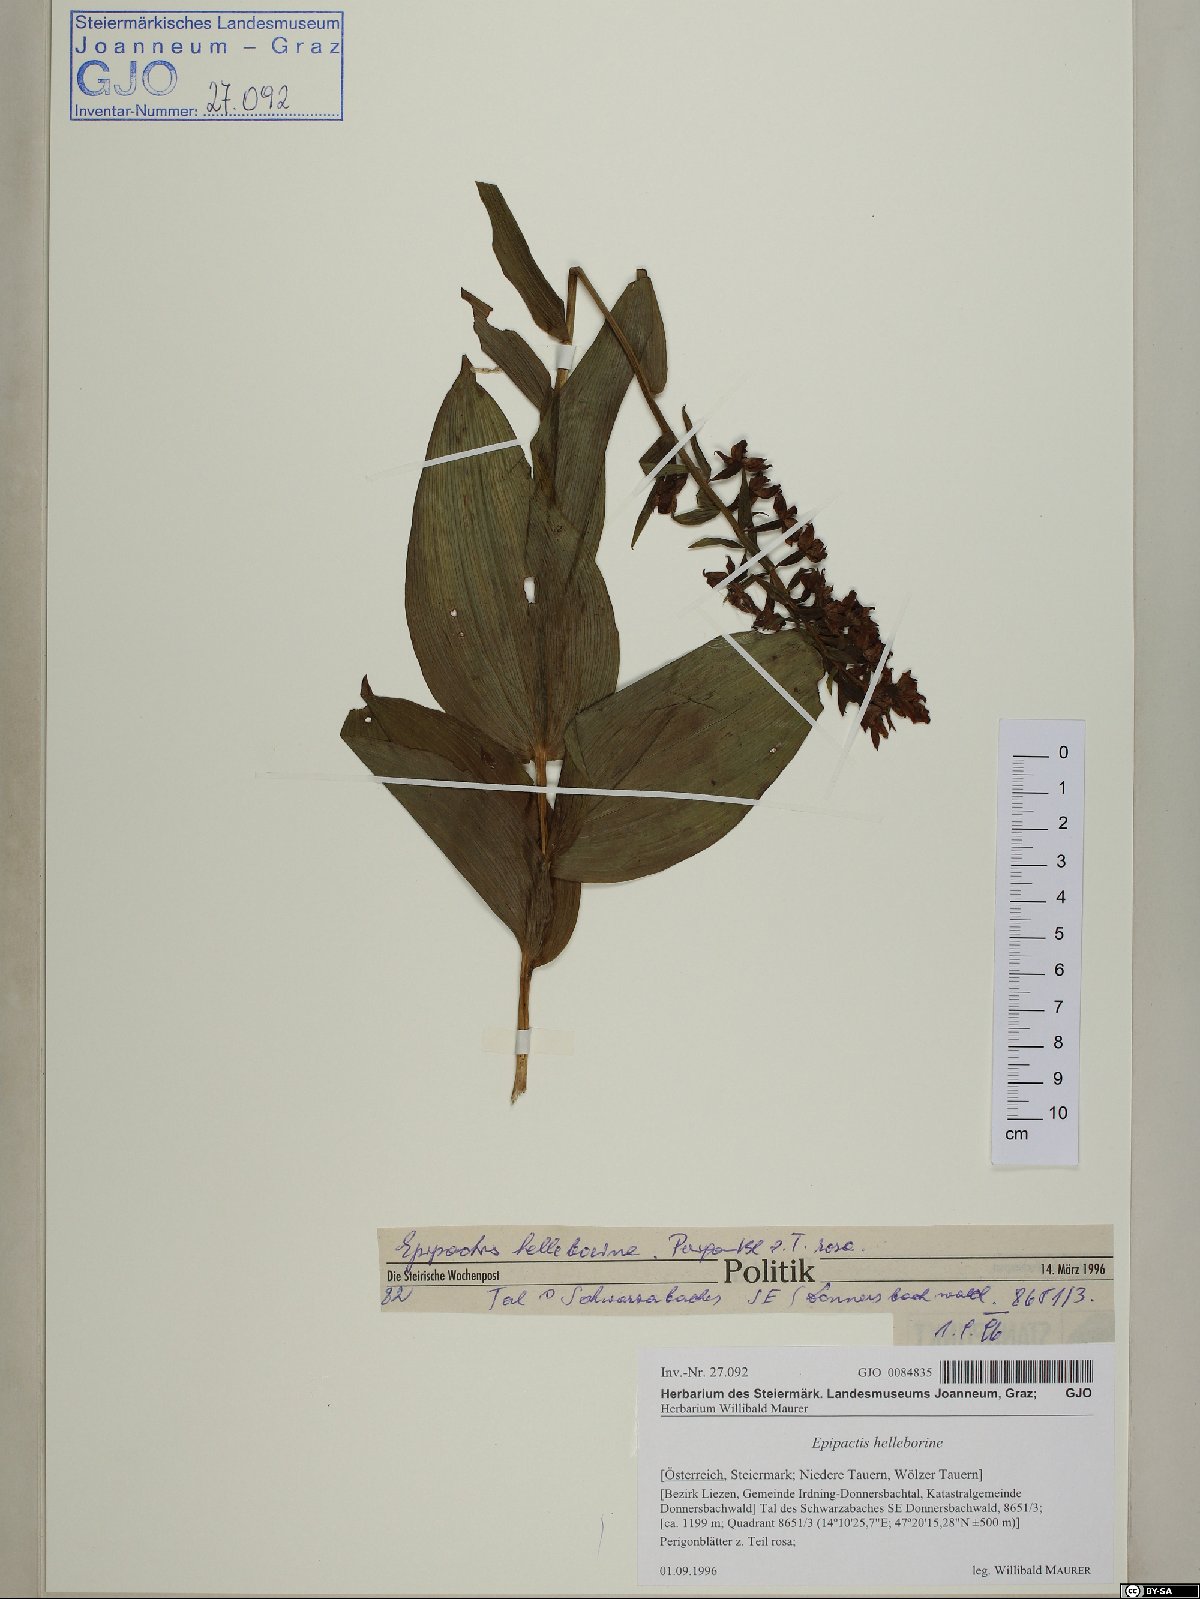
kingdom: Plantae
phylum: Tracheophyta
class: Liliopsida
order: Asparagales
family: Orchidaceae
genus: Epipactis
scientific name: Epipactis helleborine
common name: Broad-leaved helleborine
